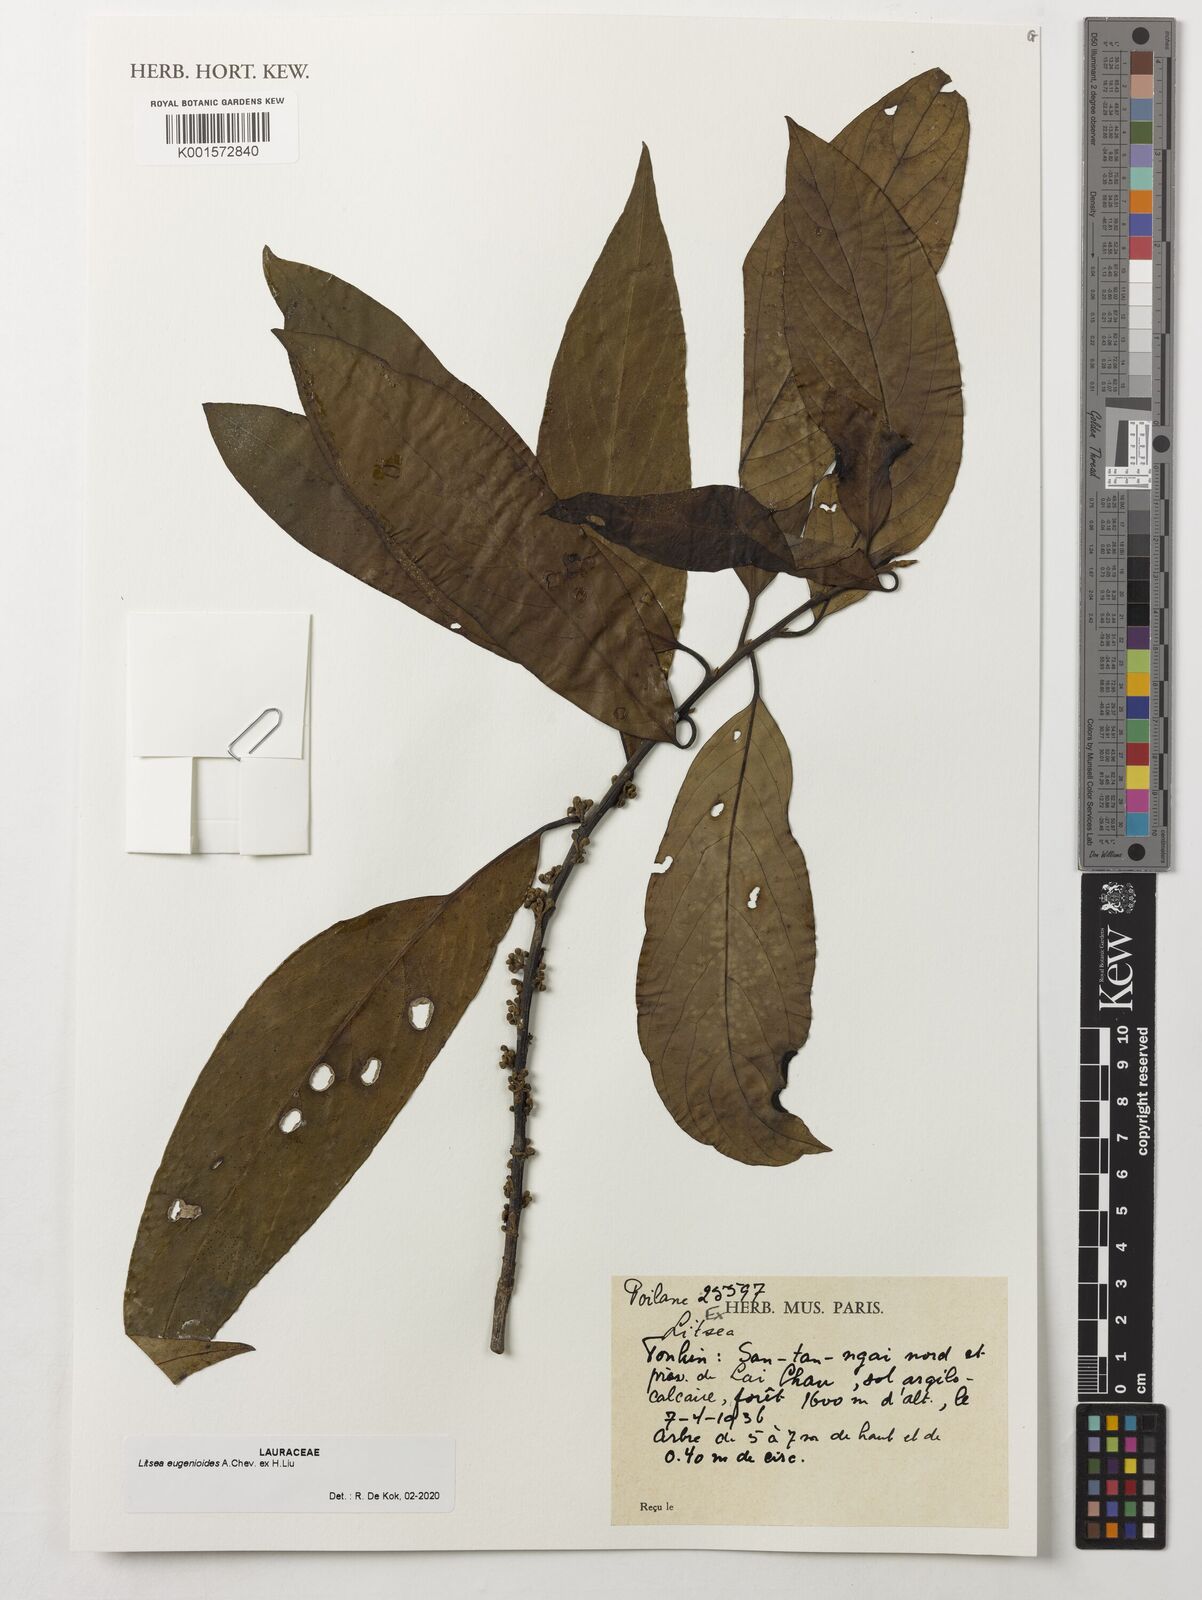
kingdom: Plantae
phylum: Tracheophyta
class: Magnoliopsida
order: Laurales
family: Lauraceae
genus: Litsea
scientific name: Litsea eugenioides
